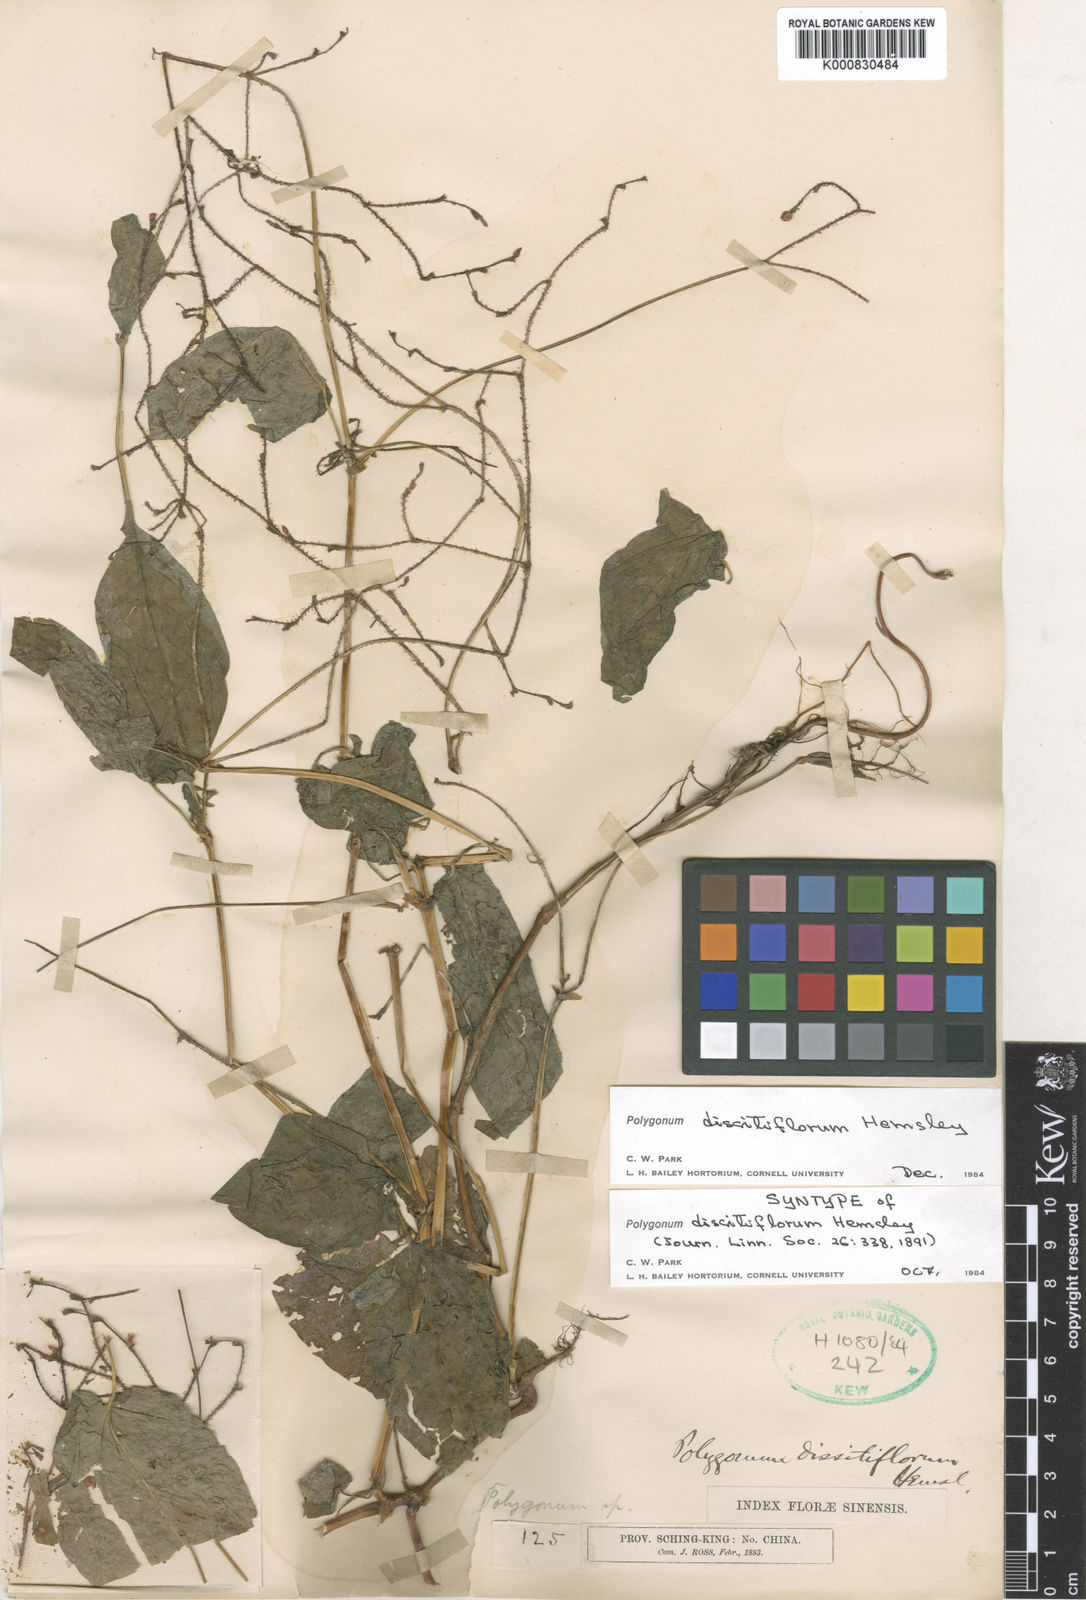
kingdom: Plantae
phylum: Tracheophyta
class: Magnoliopsida
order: Caryophyllales
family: Polygonaceae
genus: Persicaria
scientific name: Persicaria dissitiflora
